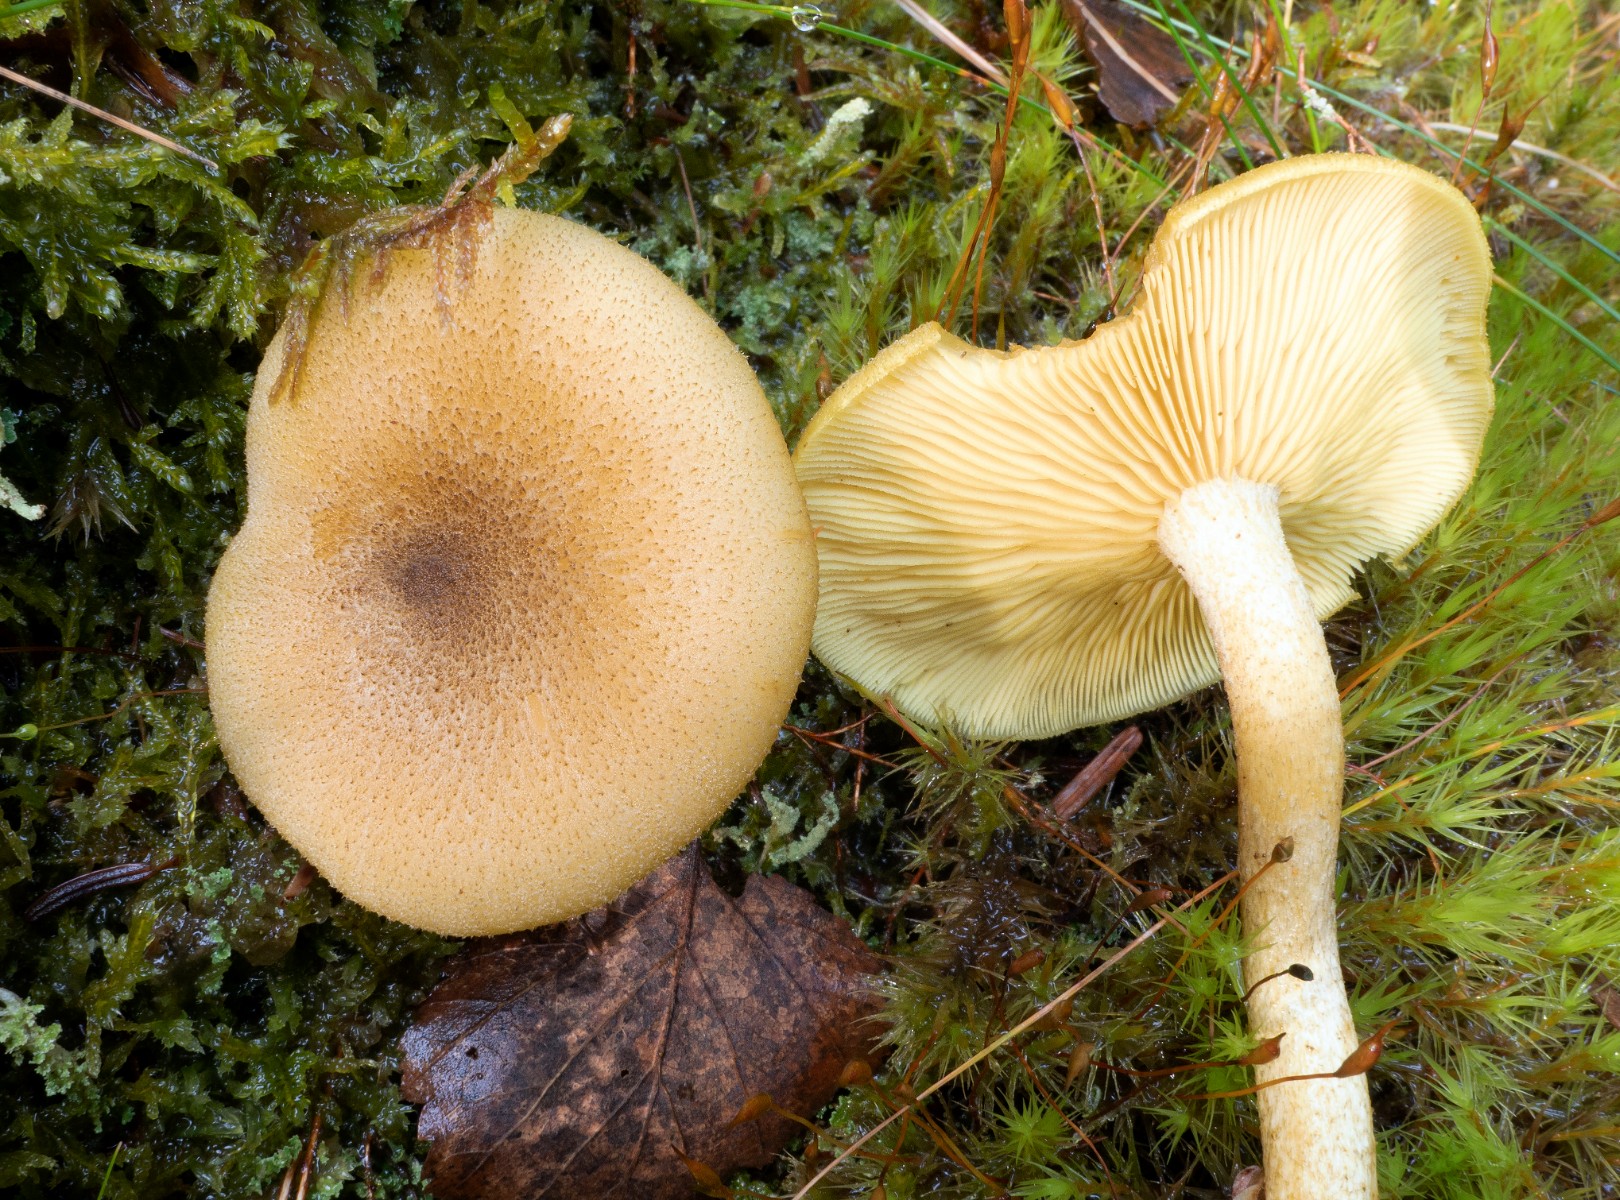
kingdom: Fungi
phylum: Basidiomycota
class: Agaricomycetes
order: Agaricales
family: Tricholomataceae
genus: Tricholomopsis
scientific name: Tricholomopsis decora
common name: sortskællet væbnerhat
